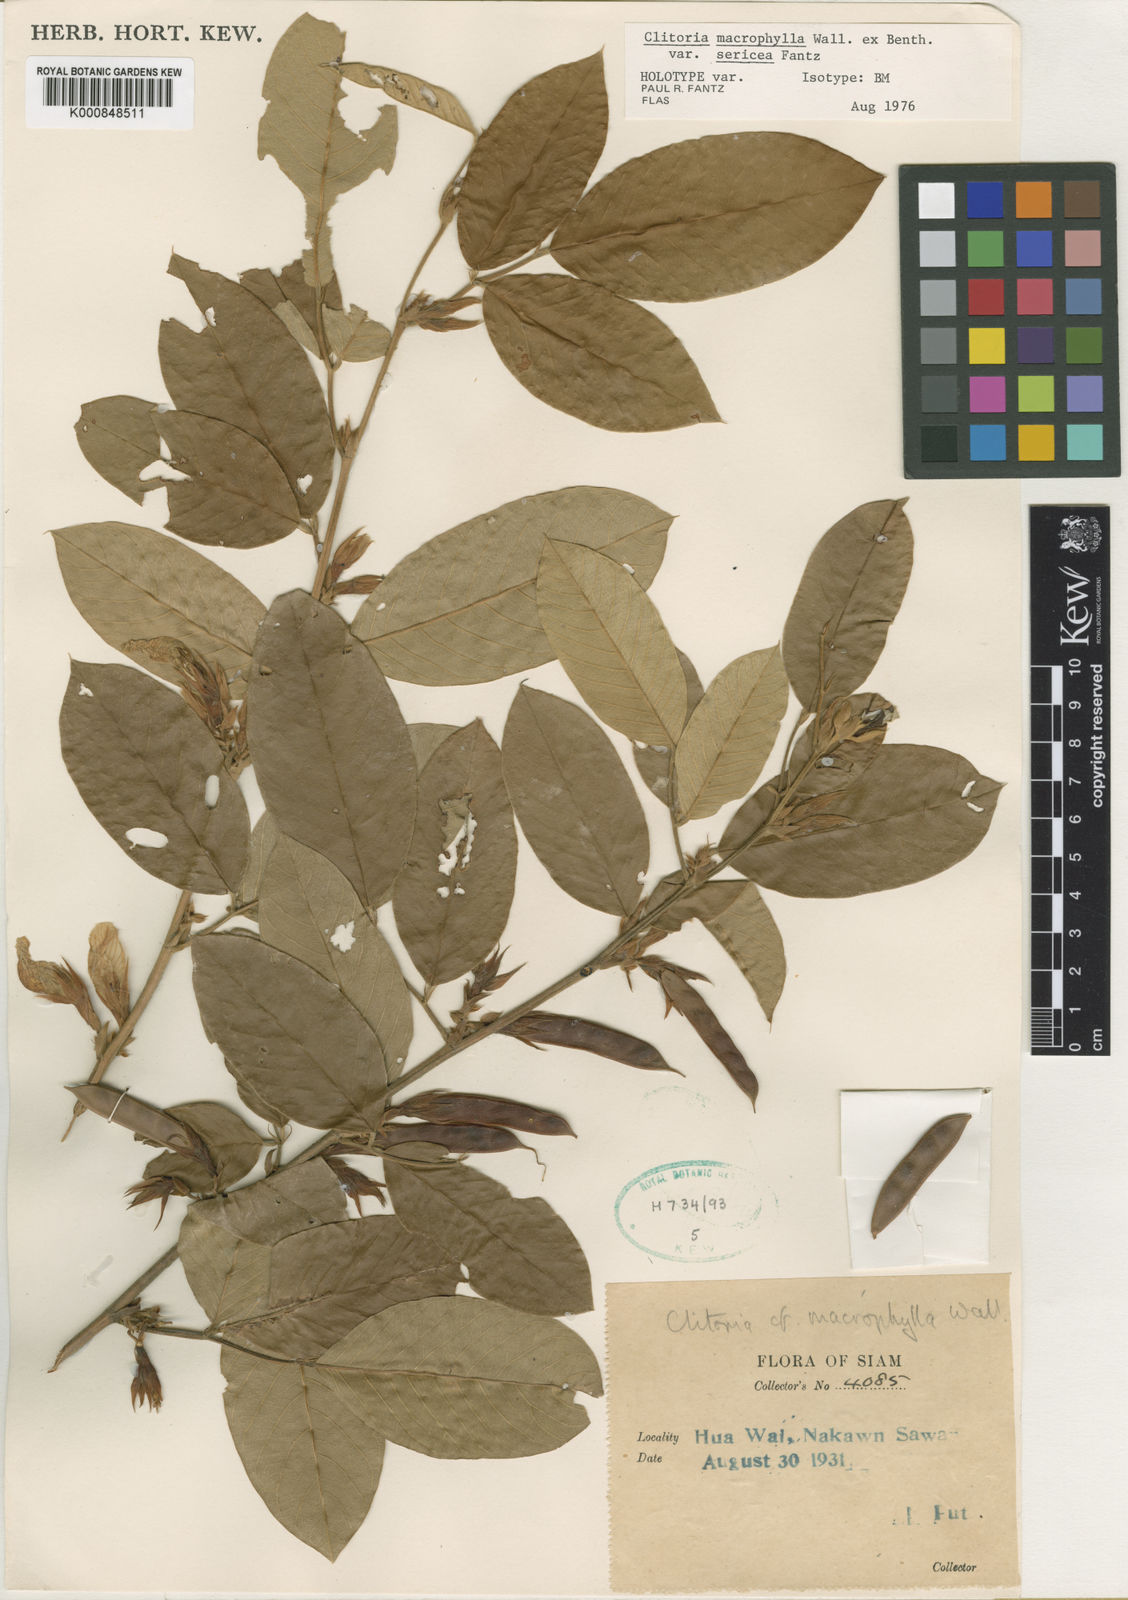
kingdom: Plantae
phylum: Tracheophyta
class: Magnoliopsida
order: Fabales
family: Fabaceae
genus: Clitoria
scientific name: Clitoria macrophylla
